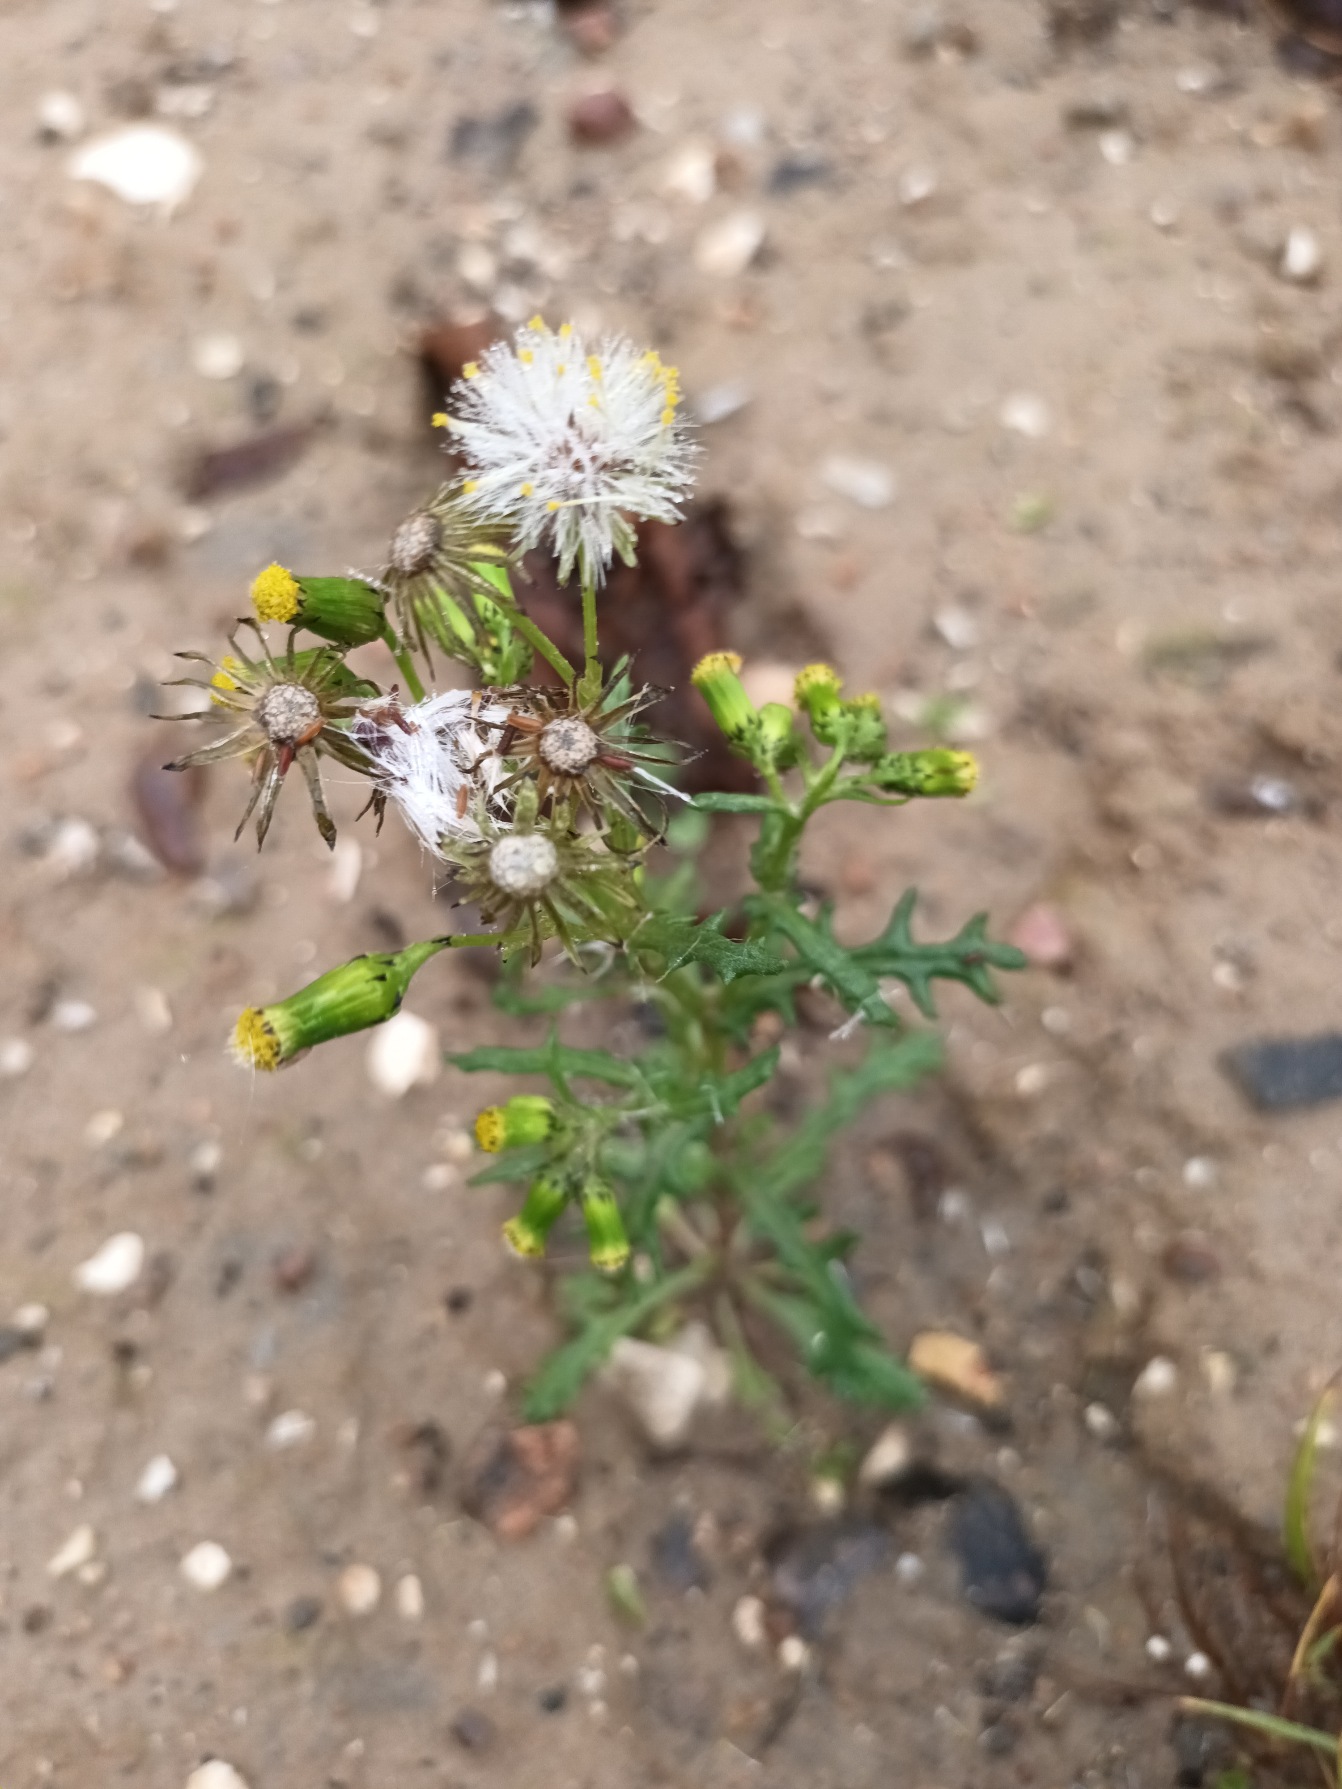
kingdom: Plantae
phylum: Tracheophyta
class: Magnoliopsida
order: Asterales
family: Asteraceae
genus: Senecio
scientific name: Senecio vulgaris
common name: Almindelig brandbæger
